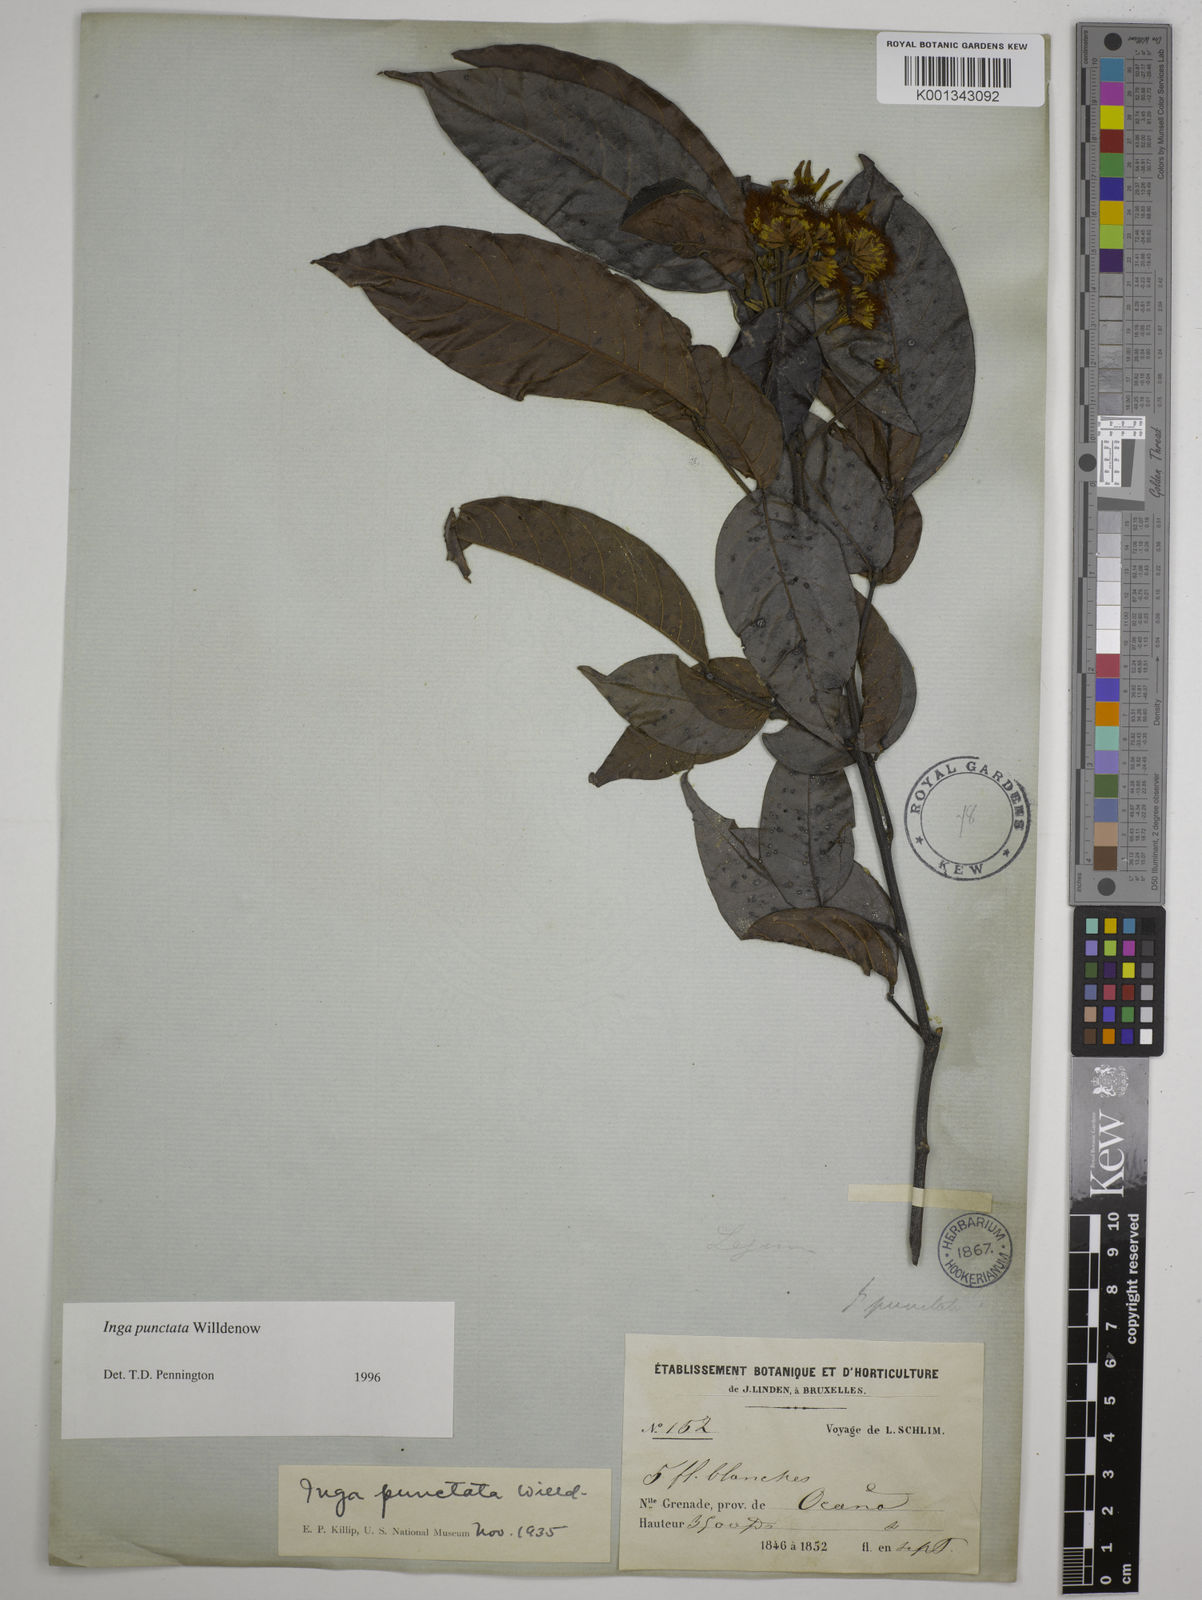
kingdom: Plantae
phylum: Tracheophyta
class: Magnoliopsida
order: Fabales
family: Fabaceae
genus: Inga
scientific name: Inga punctata
